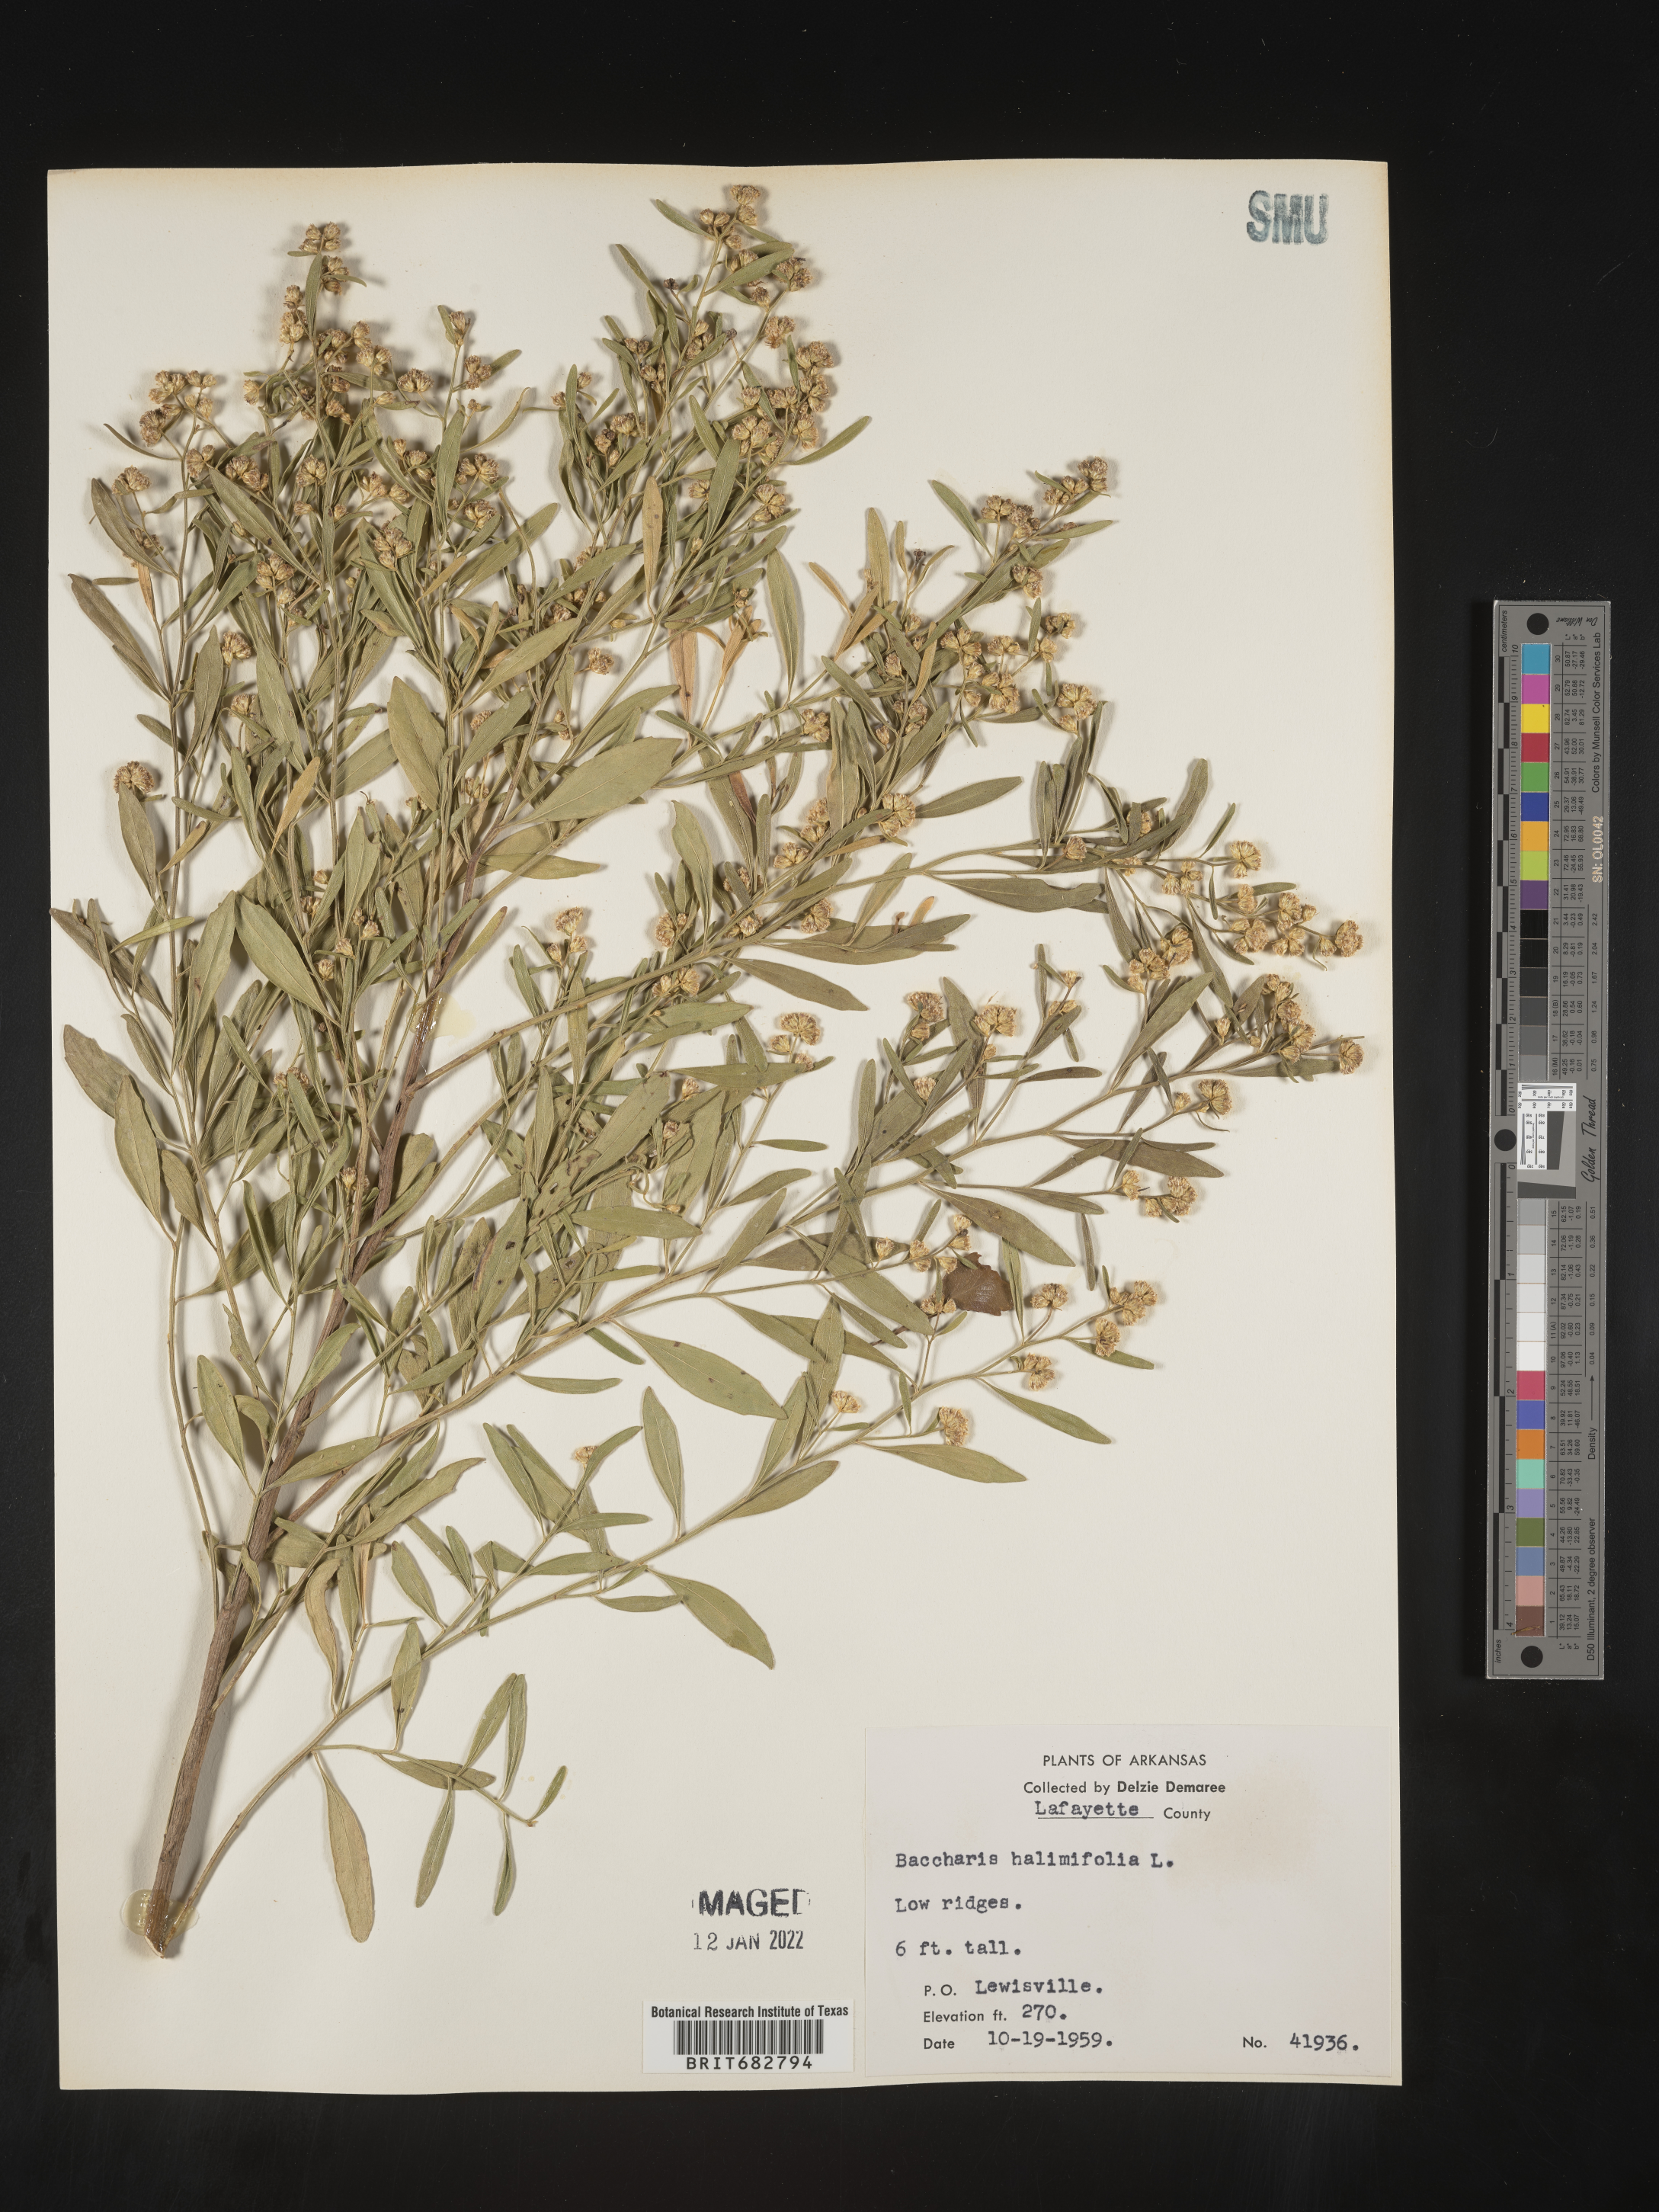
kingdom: Plantae
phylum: Tracheophyta
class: Magnoliopsida
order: Asterales
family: Asteraceae
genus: Nidorella
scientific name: Nidorella ivifolia
